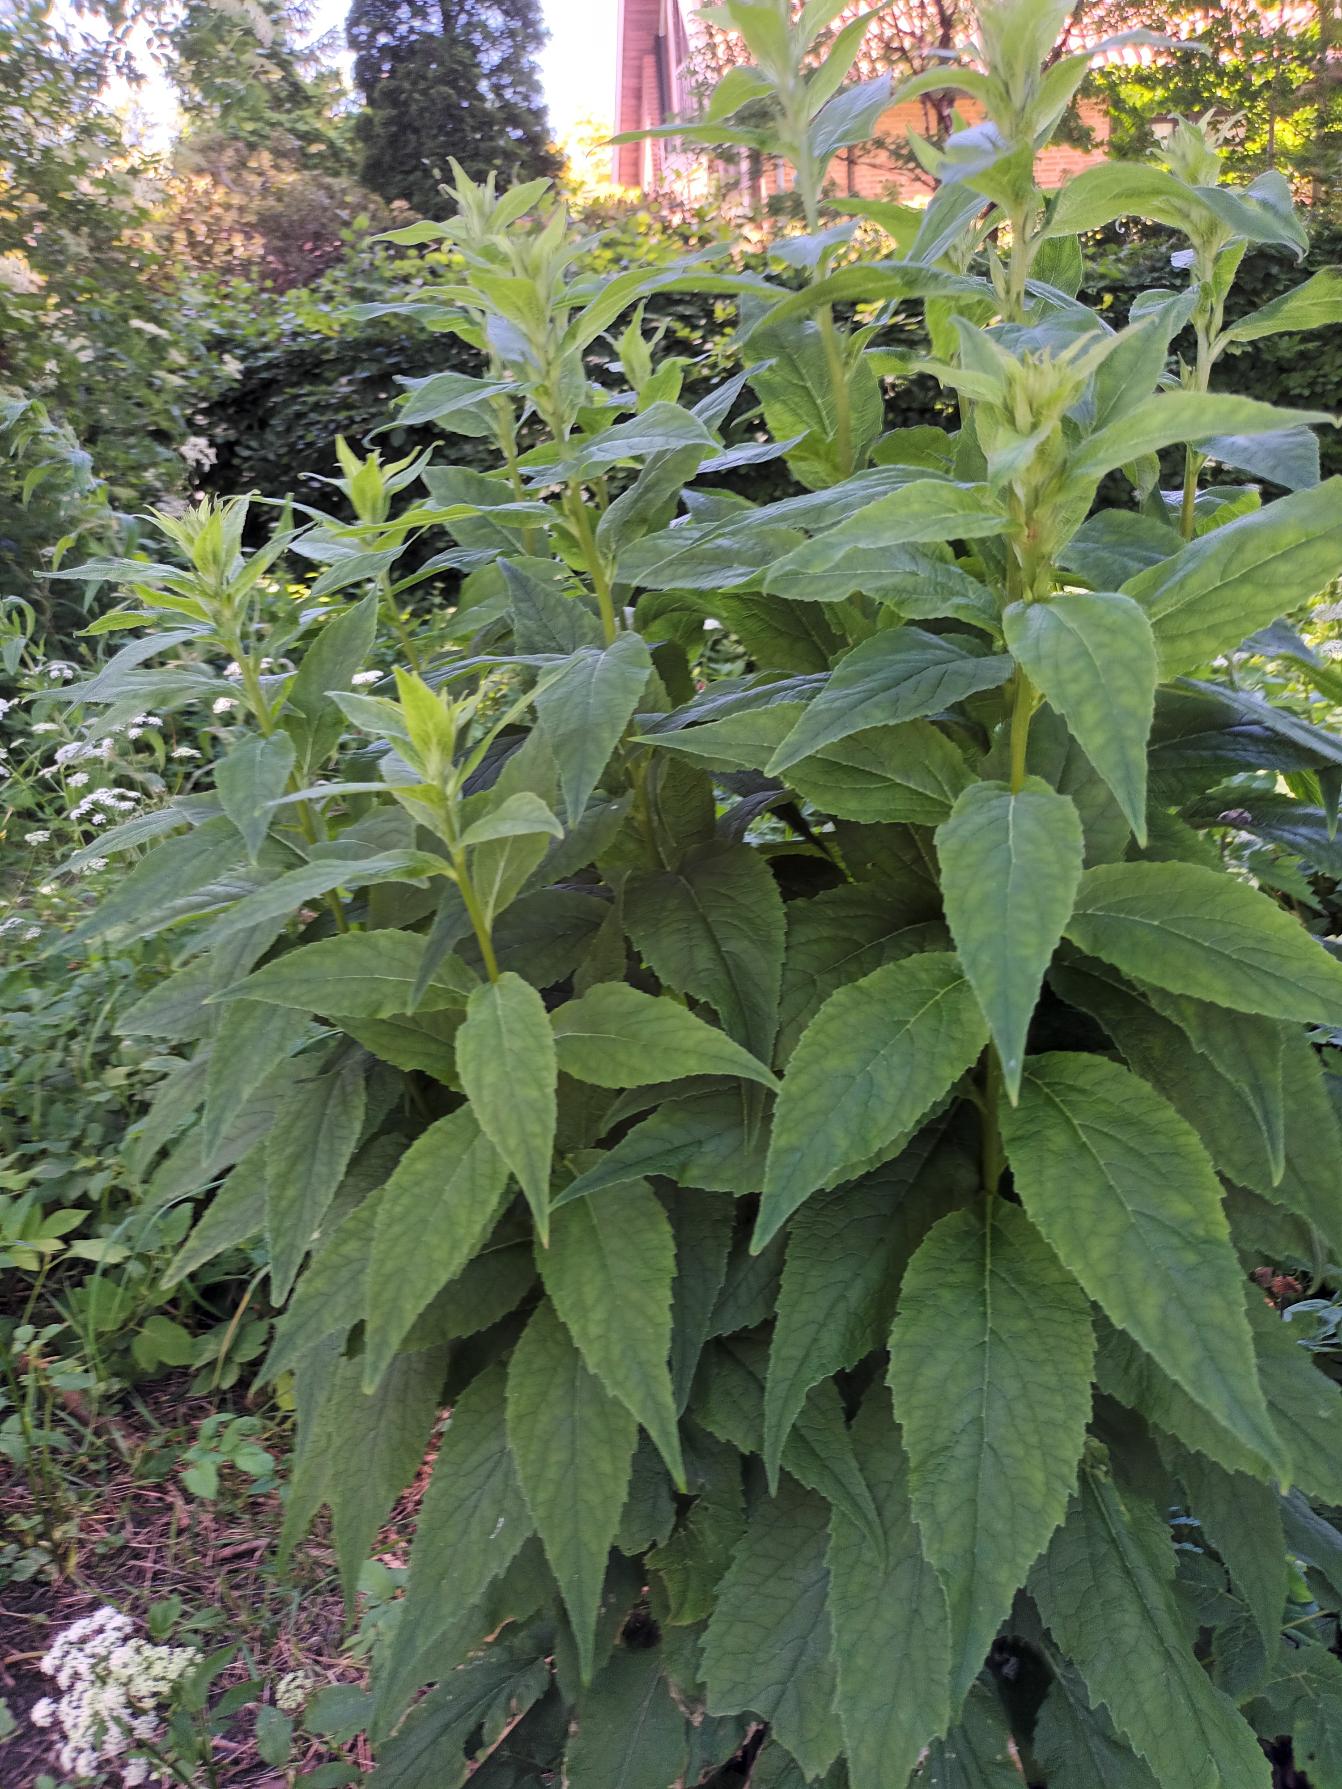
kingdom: Plantae
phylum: Tracheophyta
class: Magnoliopsida
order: Asterales
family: Campanulaceae
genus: Campanula
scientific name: Campanula latifolia
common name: Bredbladet klokke
